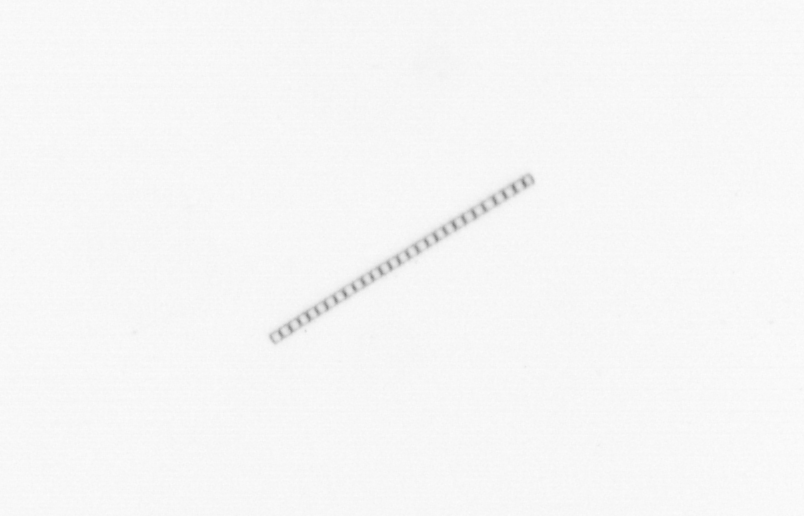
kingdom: Chromista
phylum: Ochrophyta
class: Bacillariophyceae
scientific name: Bacillariophyceae
